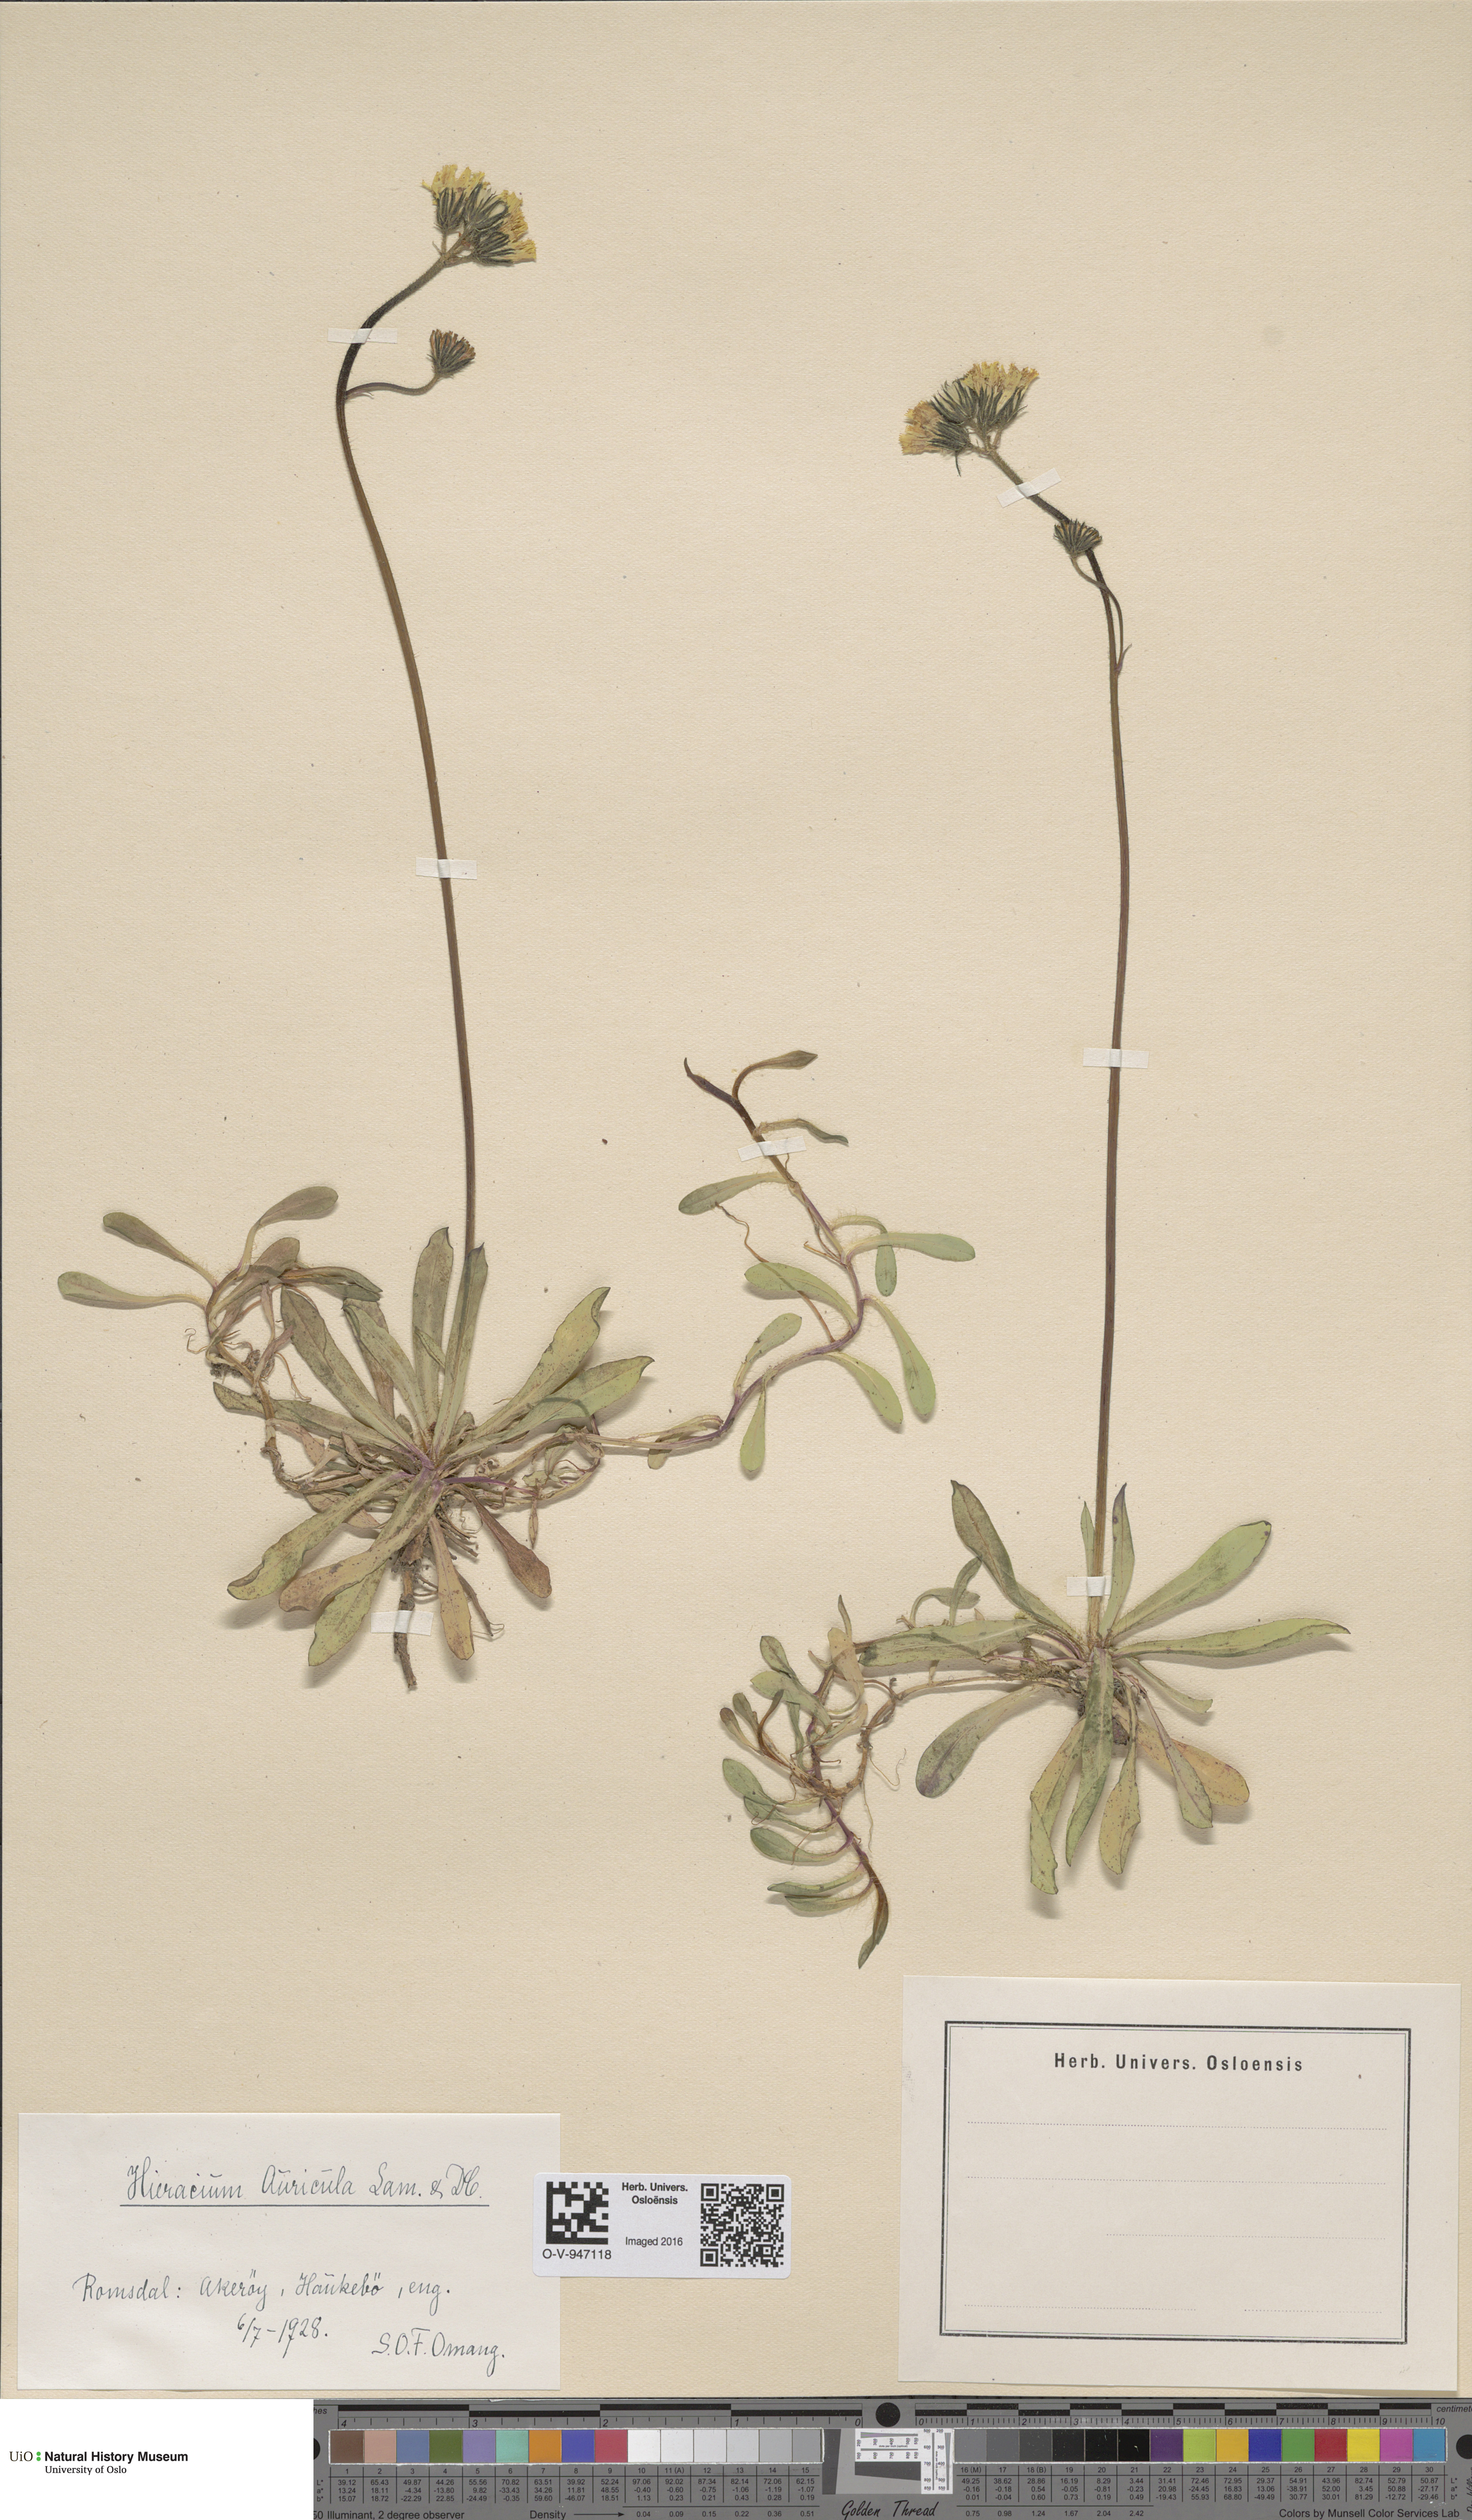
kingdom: Plantae
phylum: Tracheophyta
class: Magnoliopsida
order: Asterales
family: Asteraceae
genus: Pilosella
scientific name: Pilosella lactucella
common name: Glaucous fox-and-cubs
